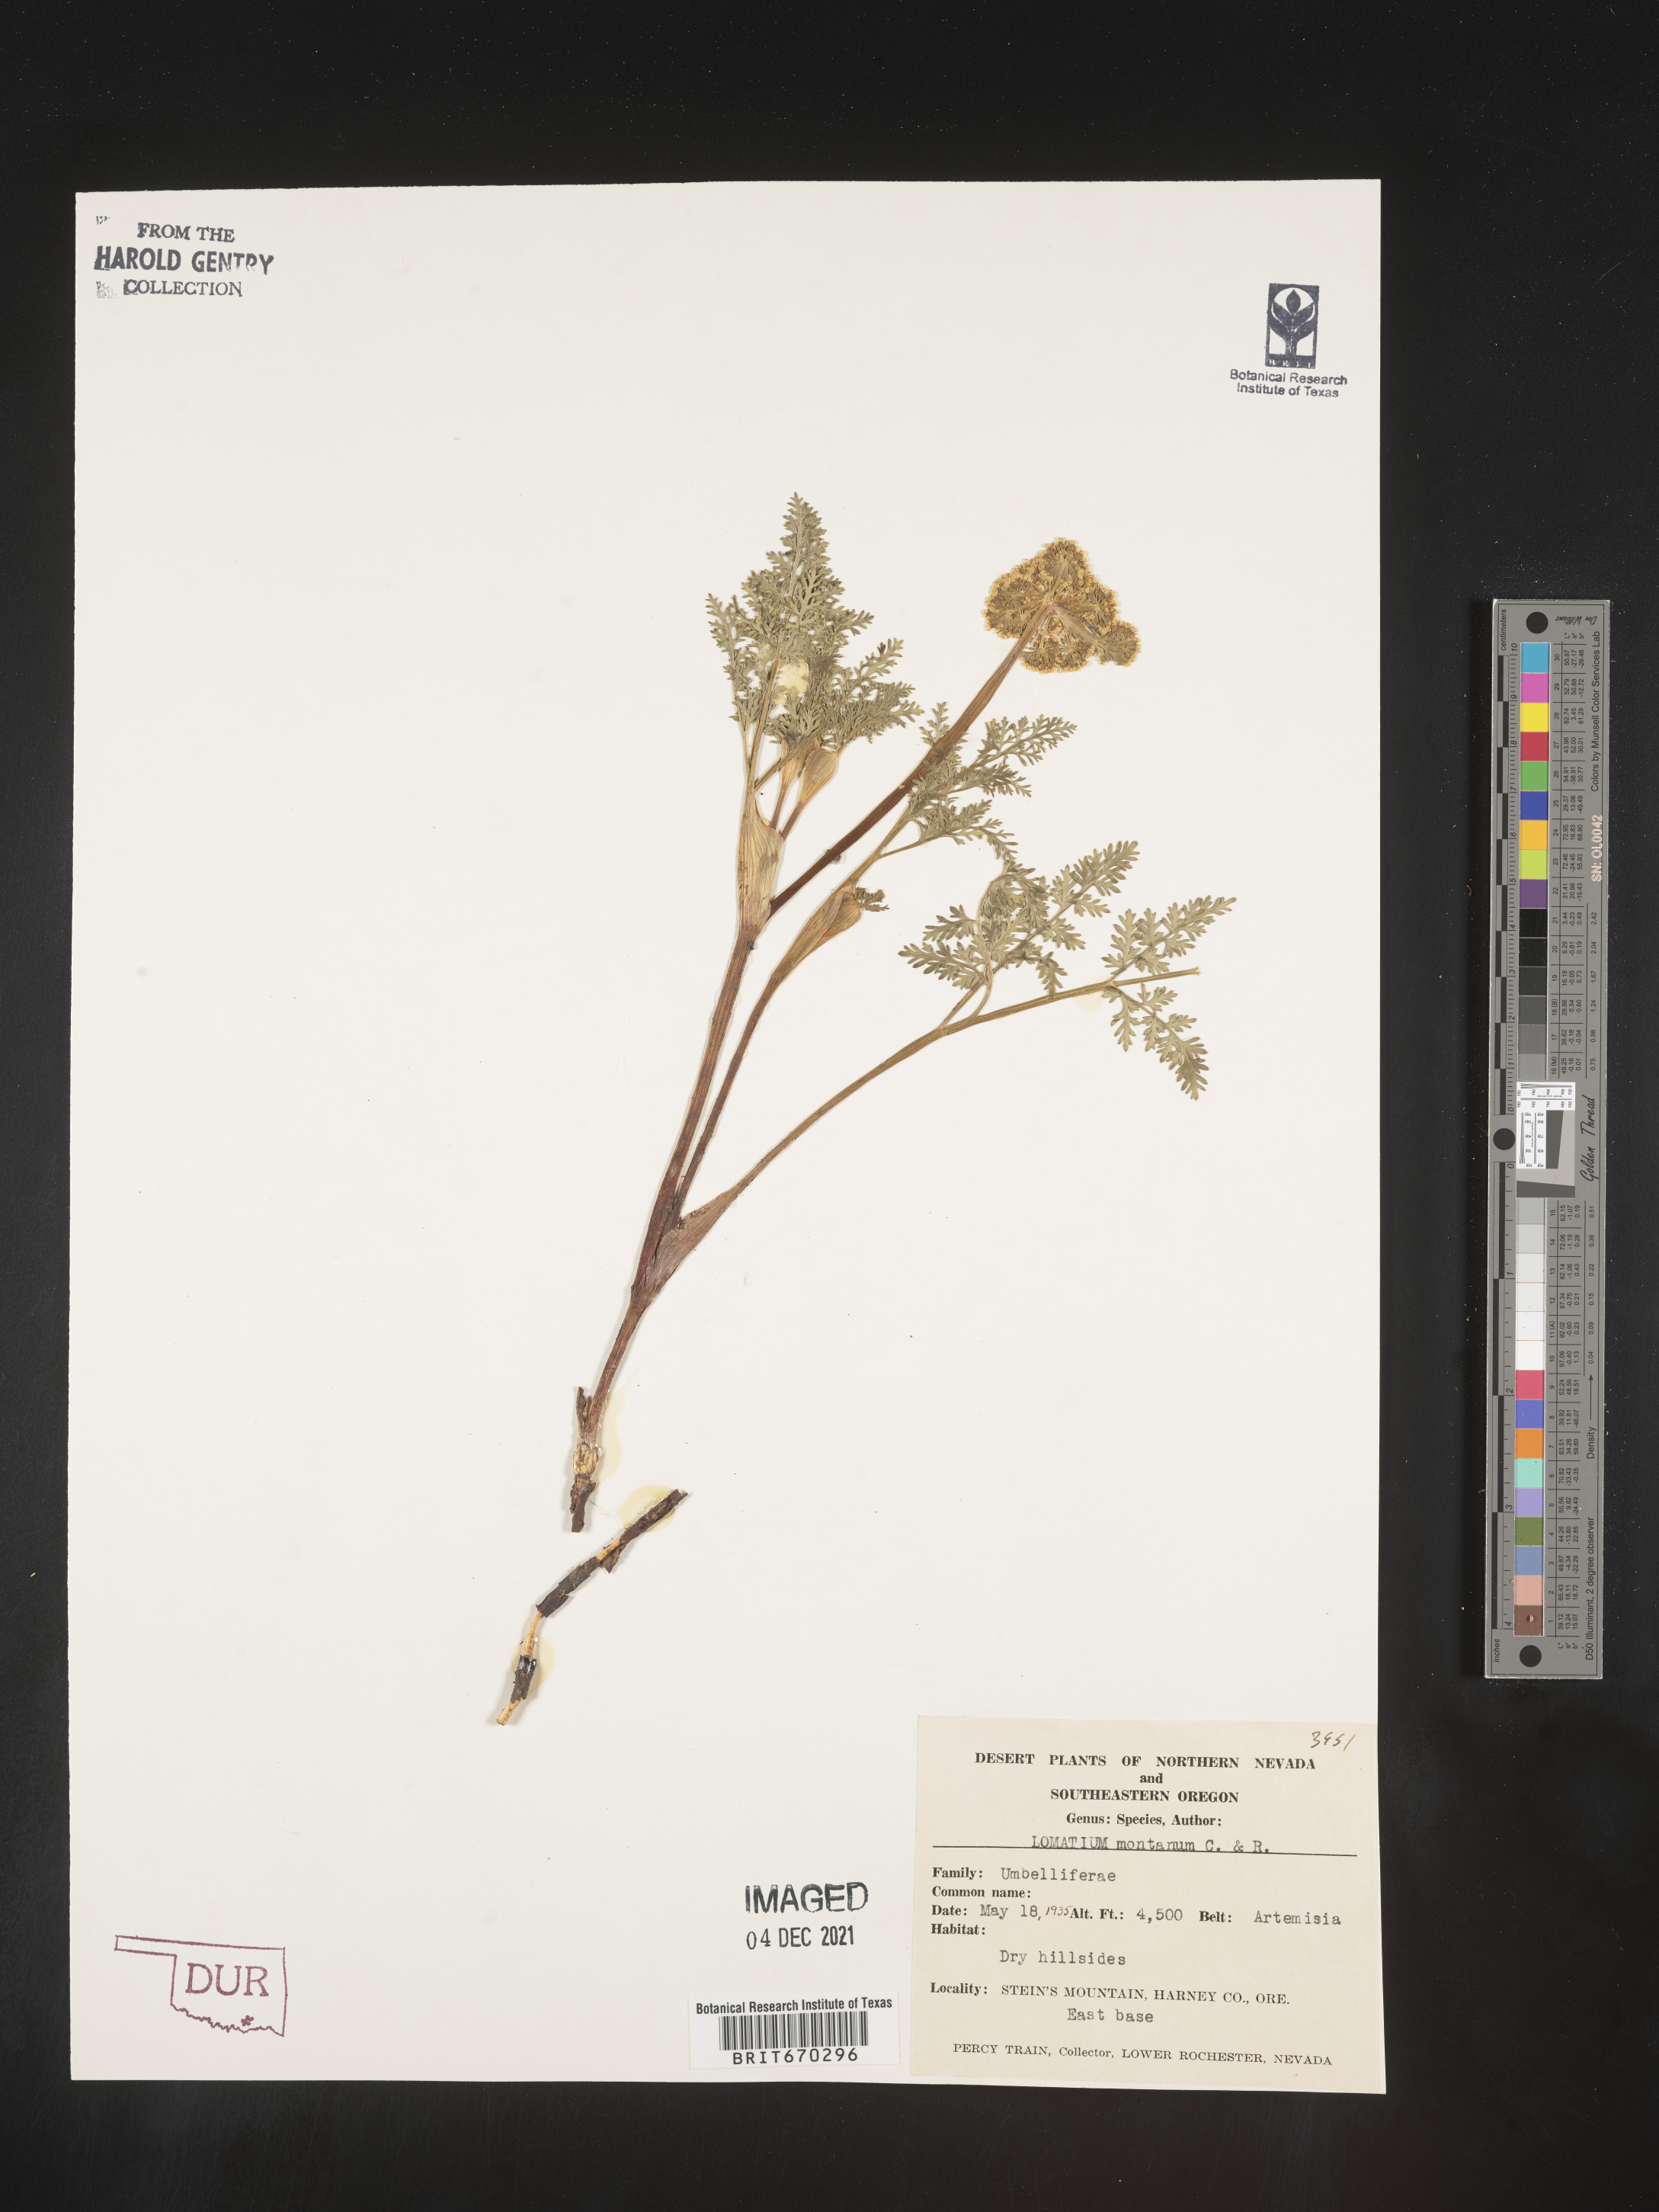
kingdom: Plantae
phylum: Tracheophyta
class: Magnoliopsida
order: Apiales
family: Apiaceae
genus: Lomatium
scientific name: Lomatium cous
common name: Biscuit-root
